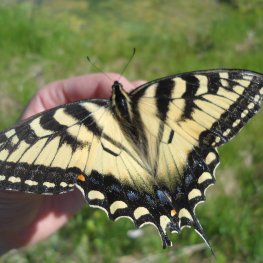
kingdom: Animalia
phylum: Arthropoda
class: Insecta
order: Lepidoptera
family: Papilionidae
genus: Pterourus
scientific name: Pterourus canadensis
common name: Canadian Tiger Swallowtail
